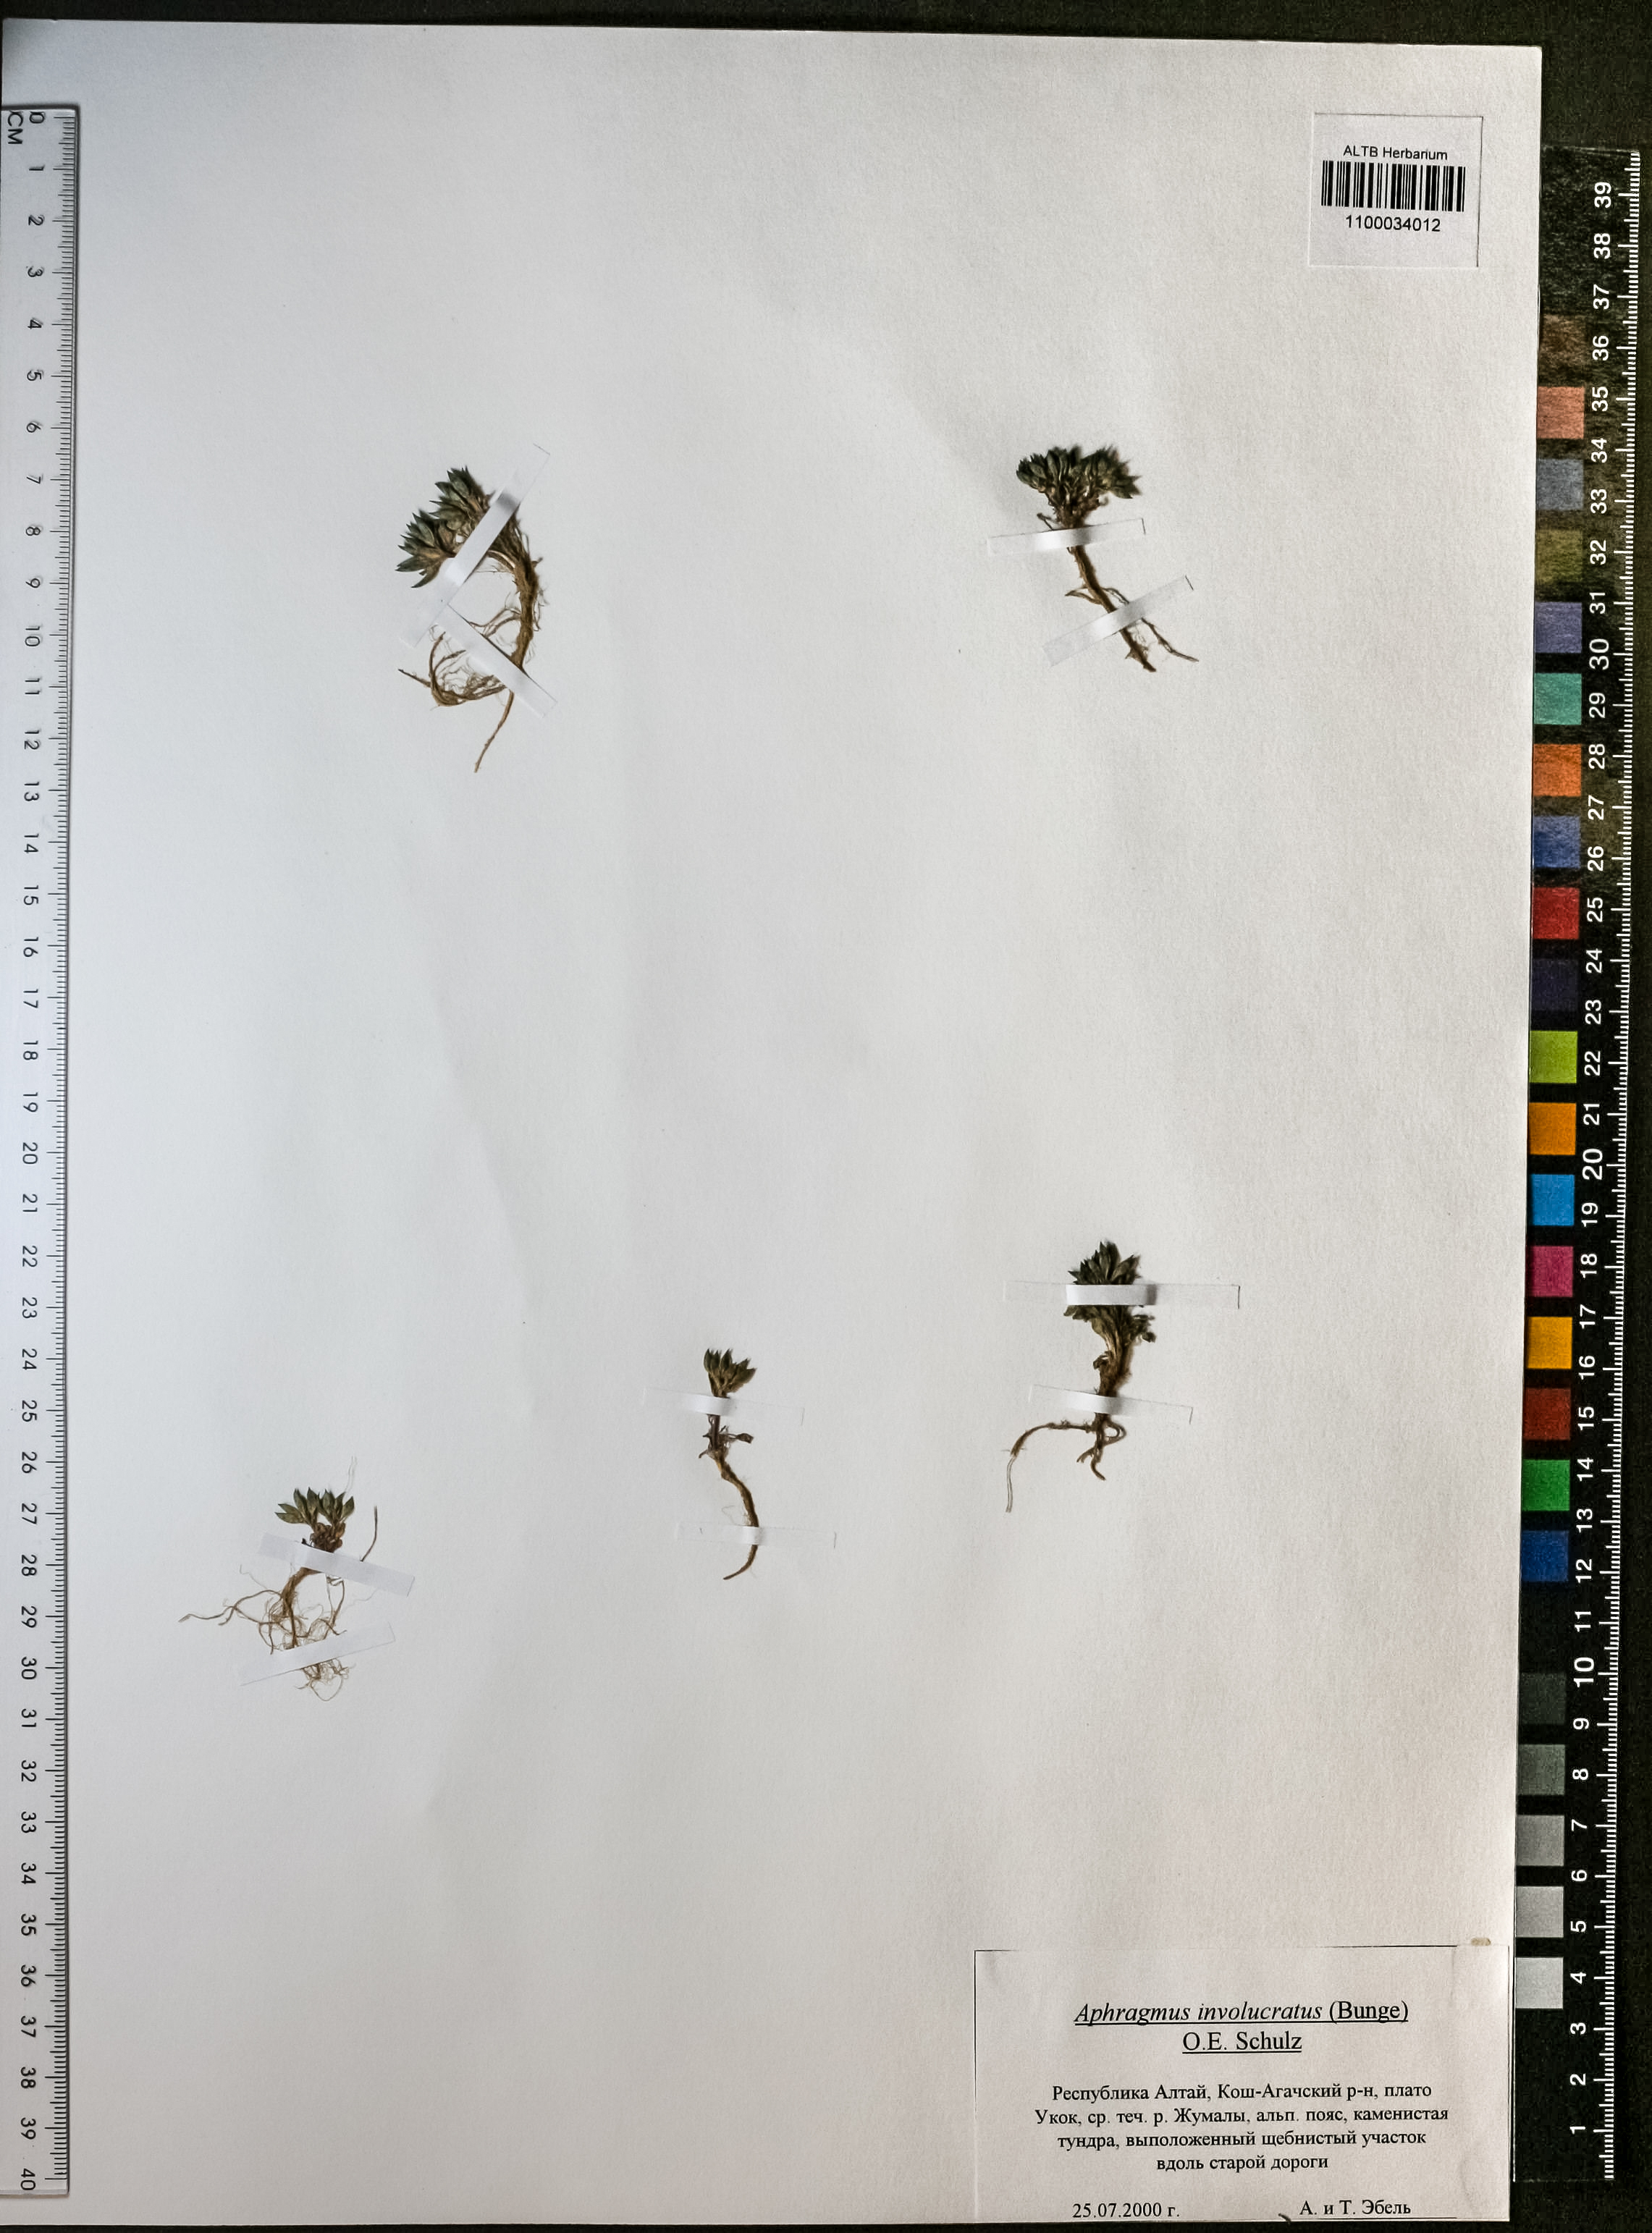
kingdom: Plantae
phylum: Tracheophyta
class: Magnoliopsida
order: Brassicales
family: Brassicaceae
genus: Aphragmus
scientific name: Aphragmus involucratus
